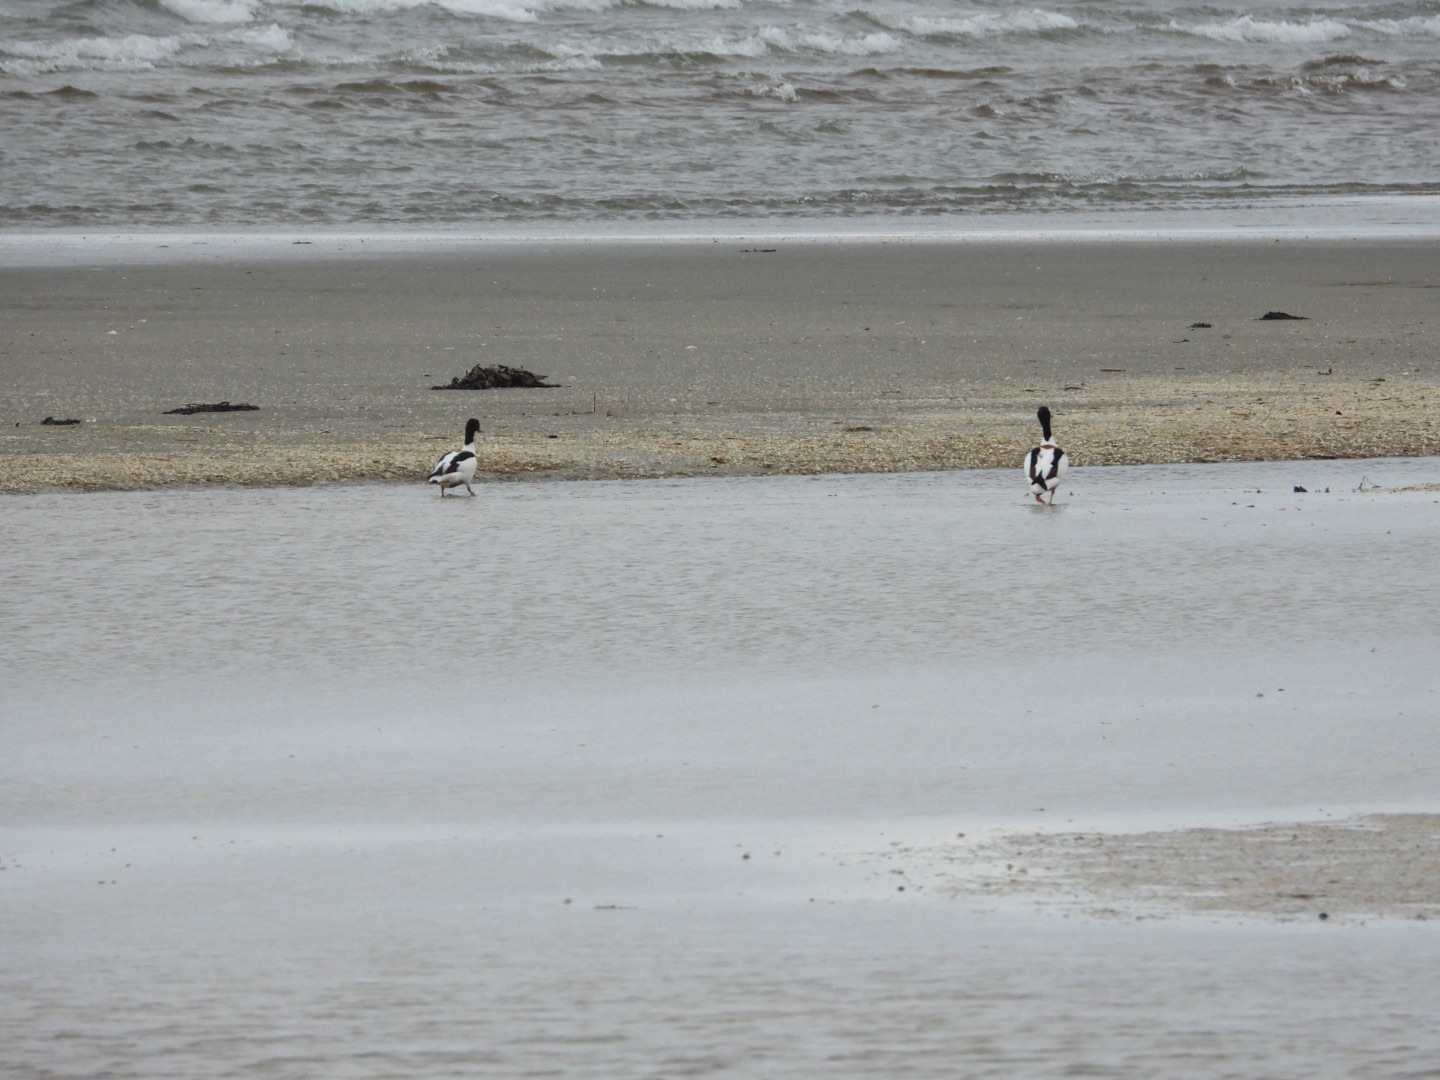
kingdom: Animalia
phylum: Chordata
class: Aves
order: Anseriformes
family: Anatidae
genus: Tadorna
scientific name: Tadorna tadorna
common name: Gravand
